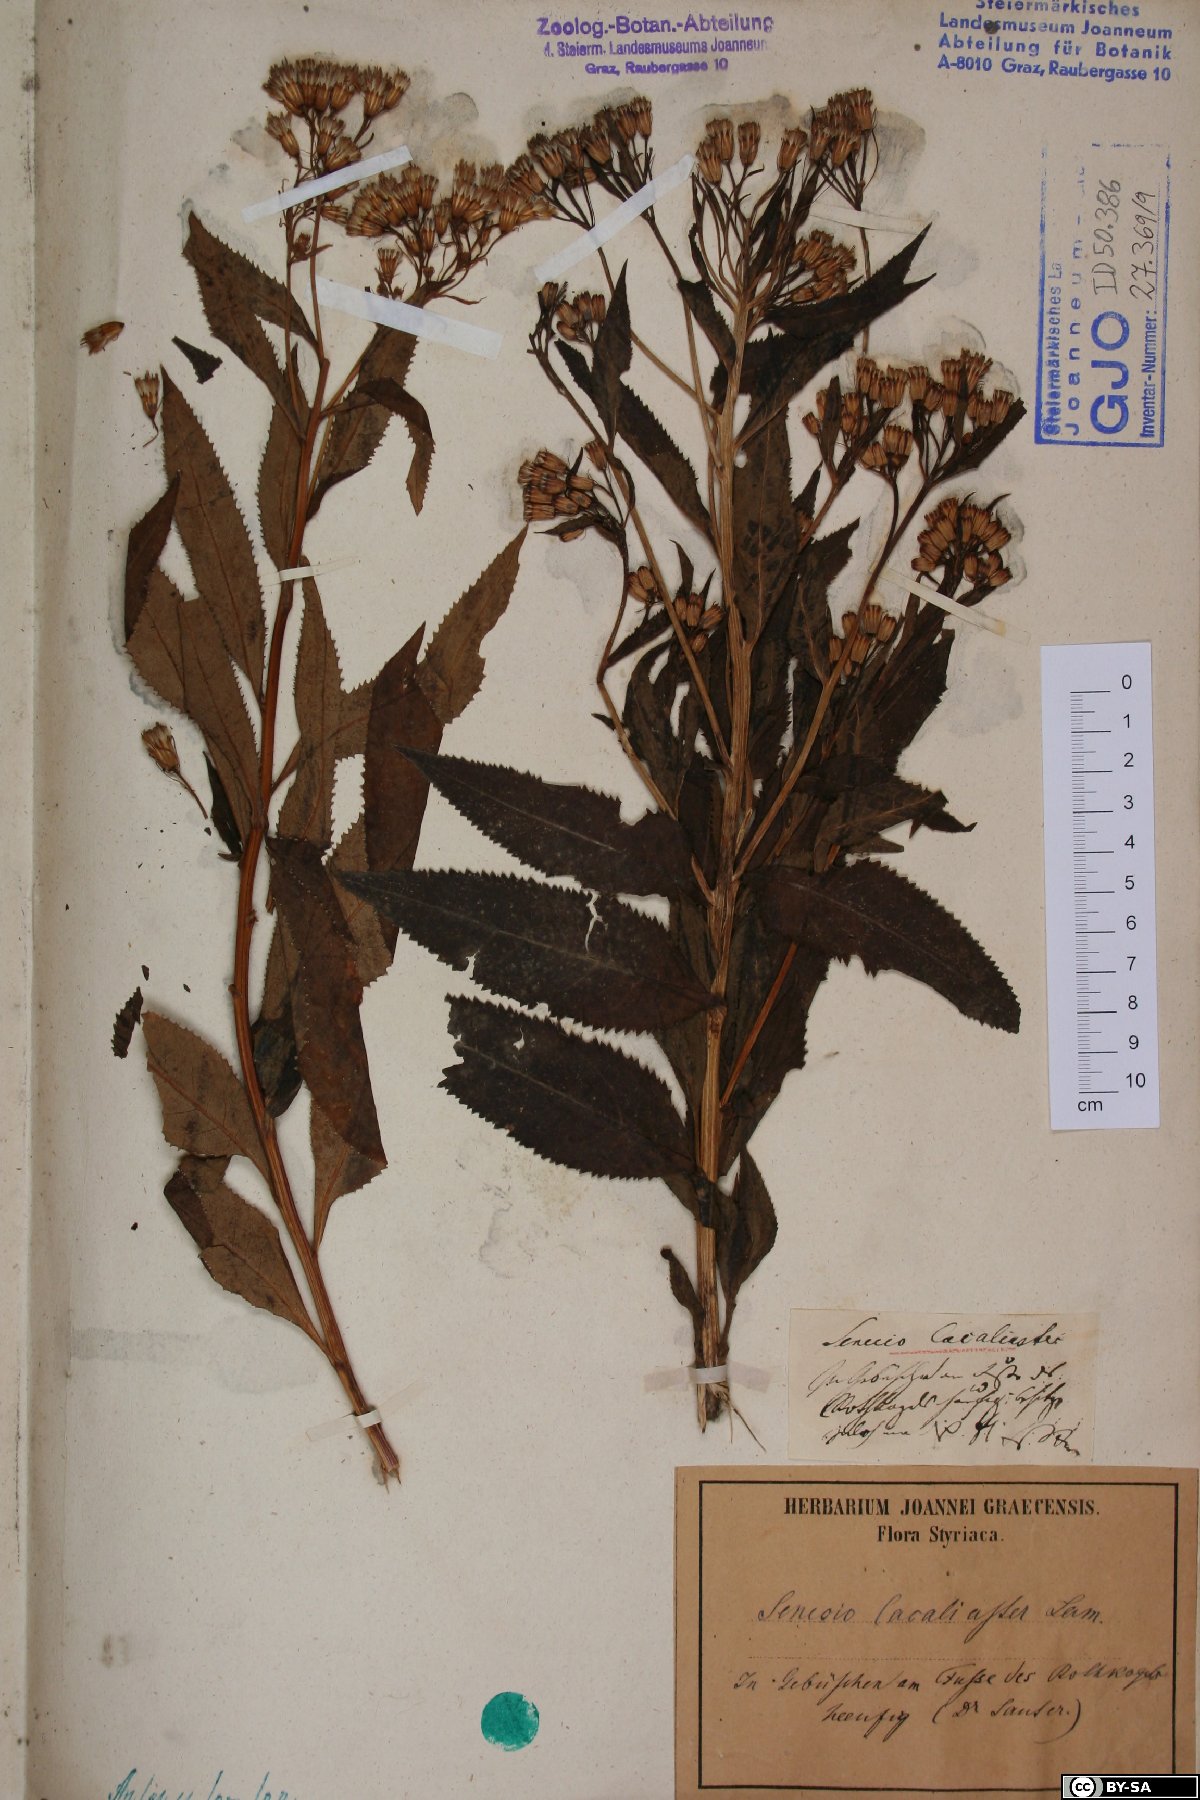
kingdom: Plantae
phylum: Tracheophyta
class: Magnoliopsida
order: Asterales
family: Asteraceae
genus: Senecio
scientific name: Senecio cacaliaster
